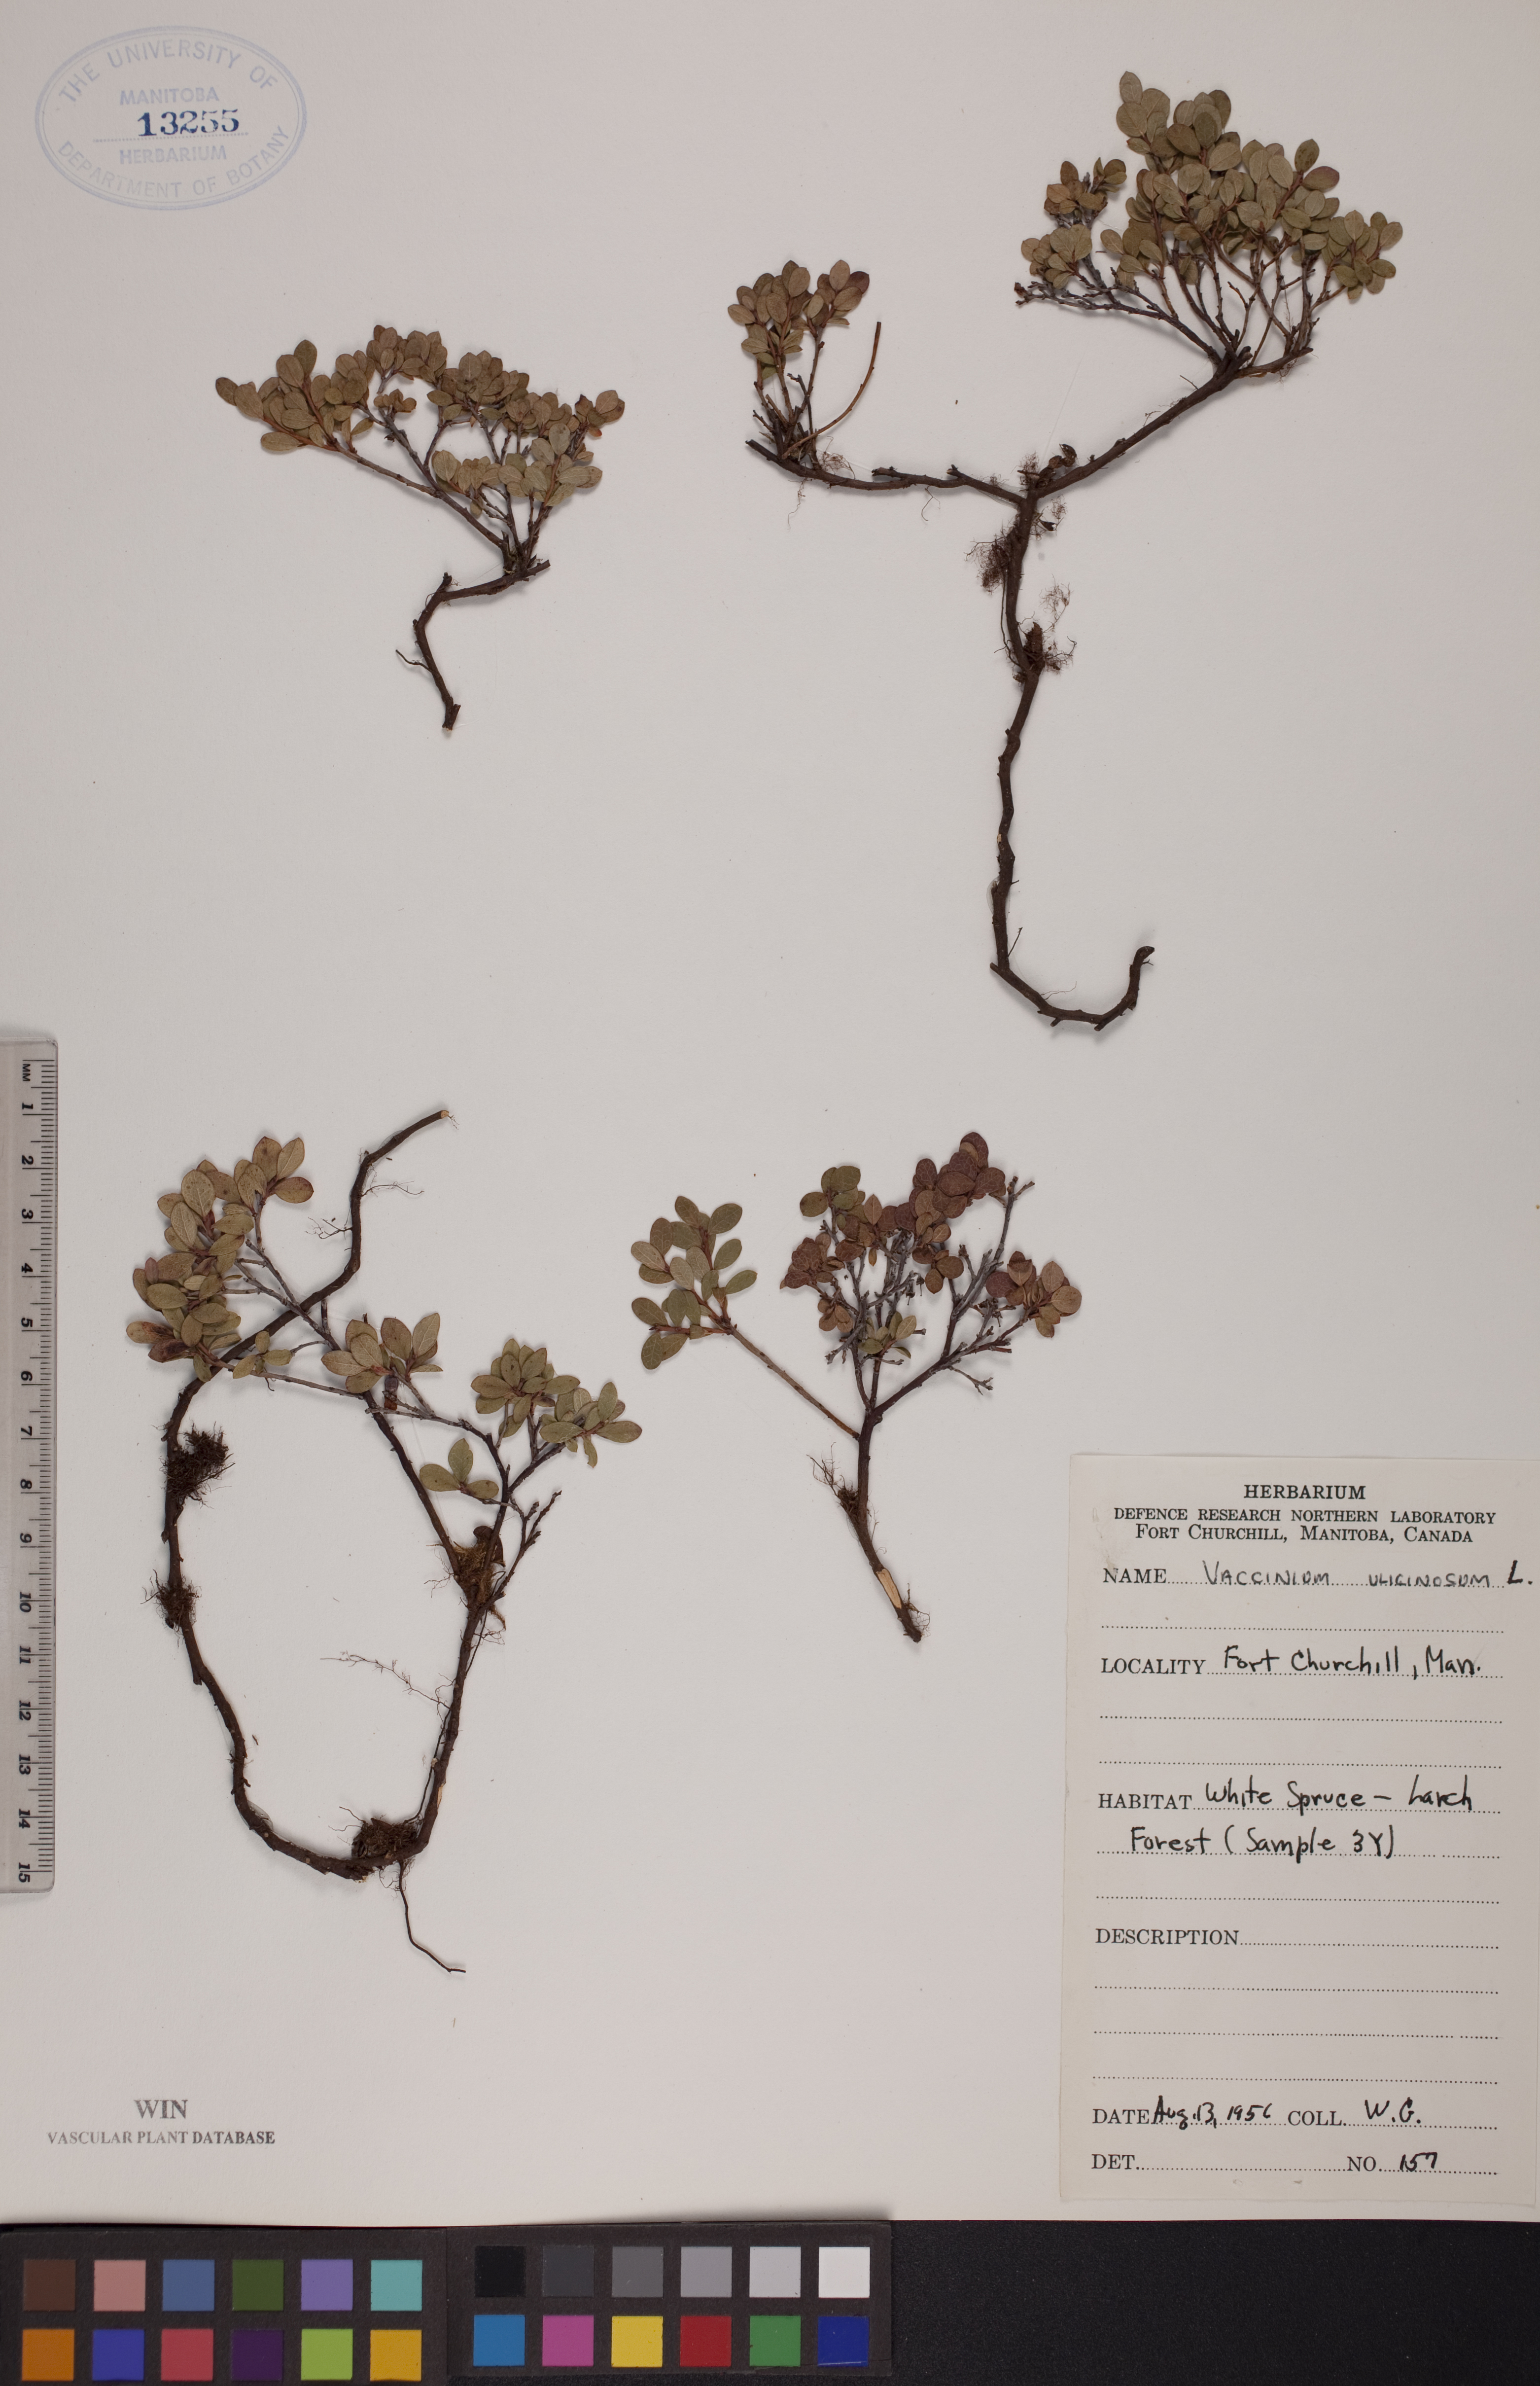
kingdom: Plantae
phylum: Tracheophyta
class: Magnoliopsida
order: Ericales
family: Ericaceae
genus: Vaccinium
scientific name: Vaccinium uliginosum
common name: Bog bilberry
